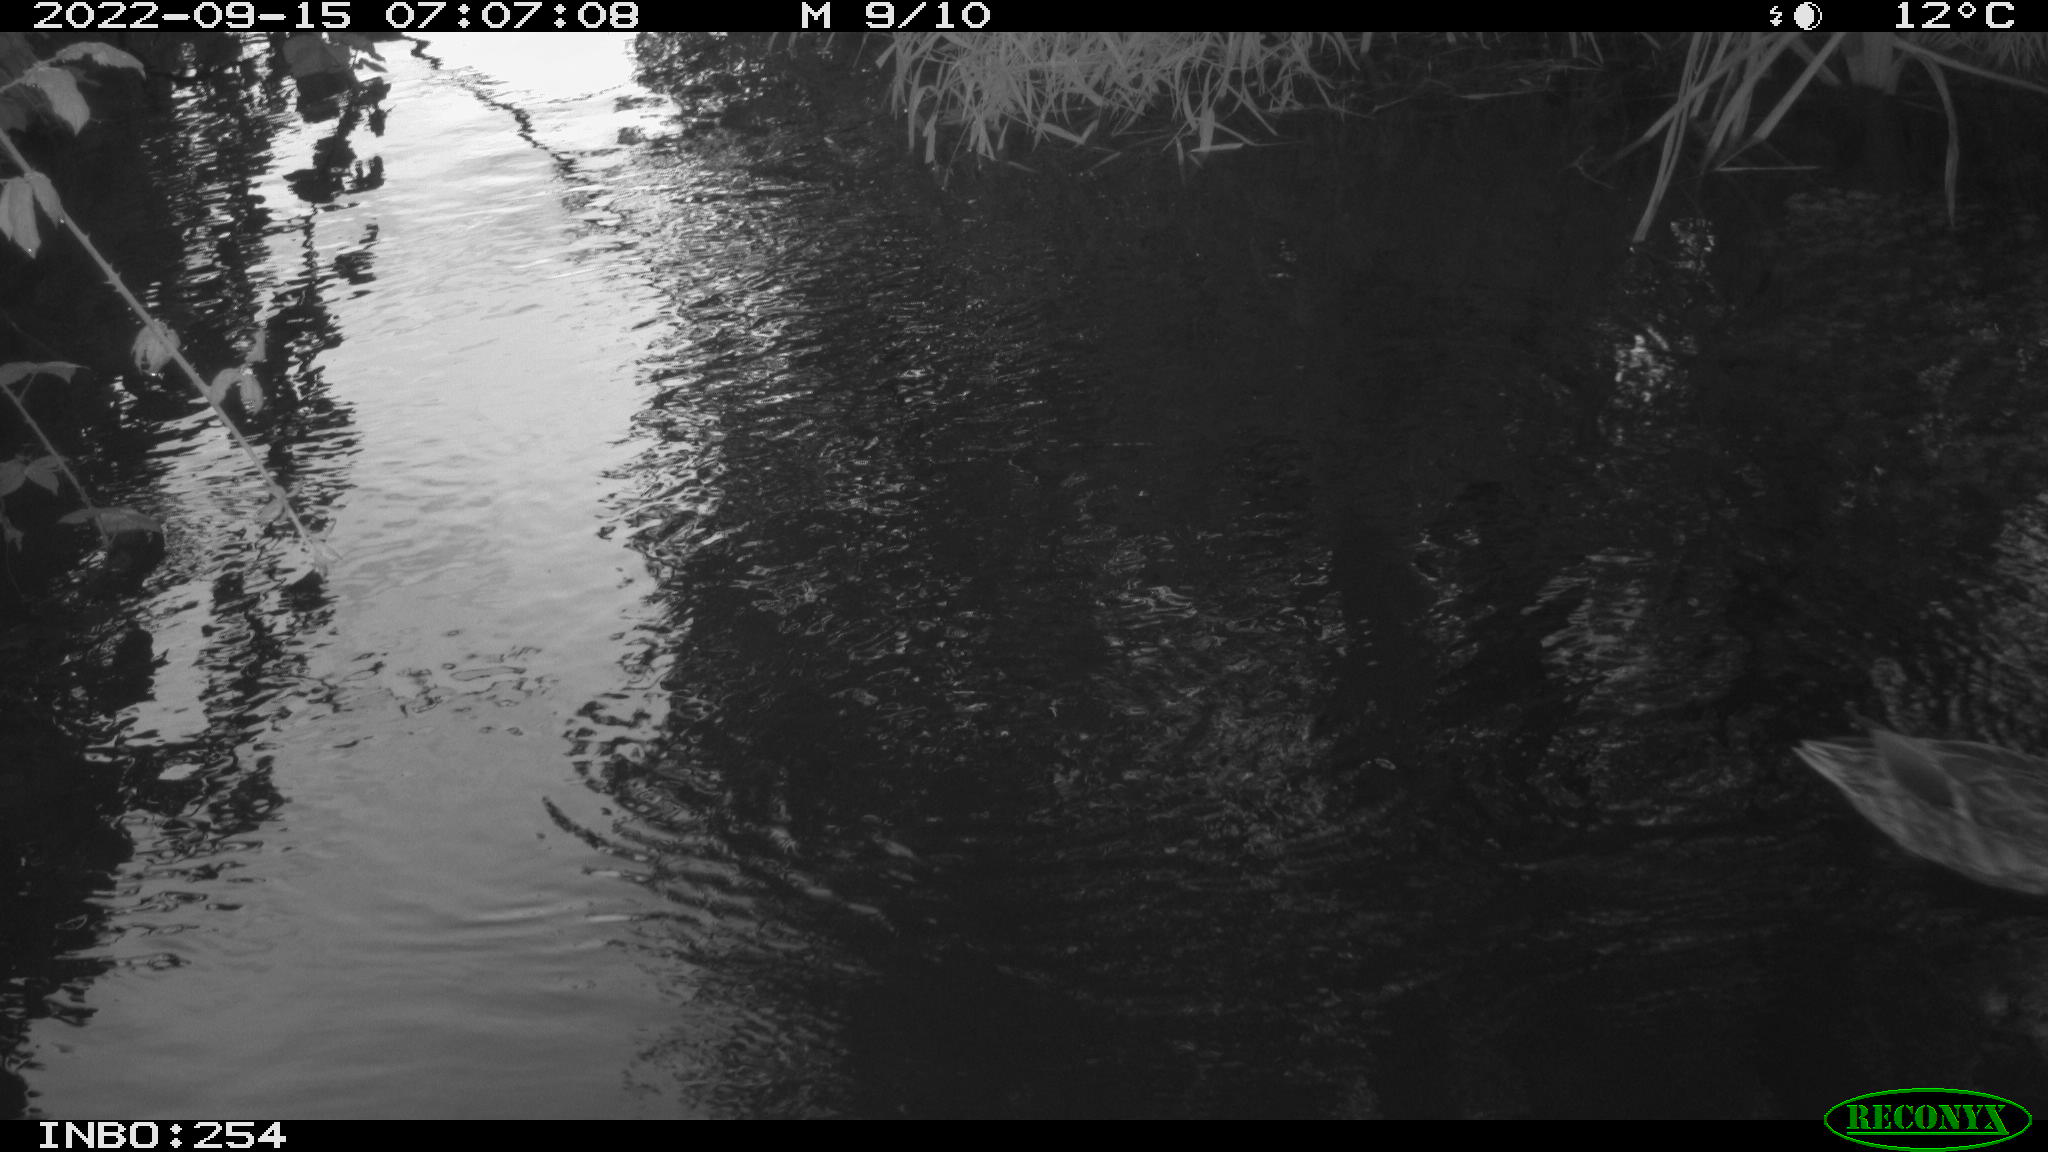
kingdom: Animalia
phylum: Chordata
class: Aves
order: Anseriformes
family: Anatidae
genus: Anas
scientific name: Anas
